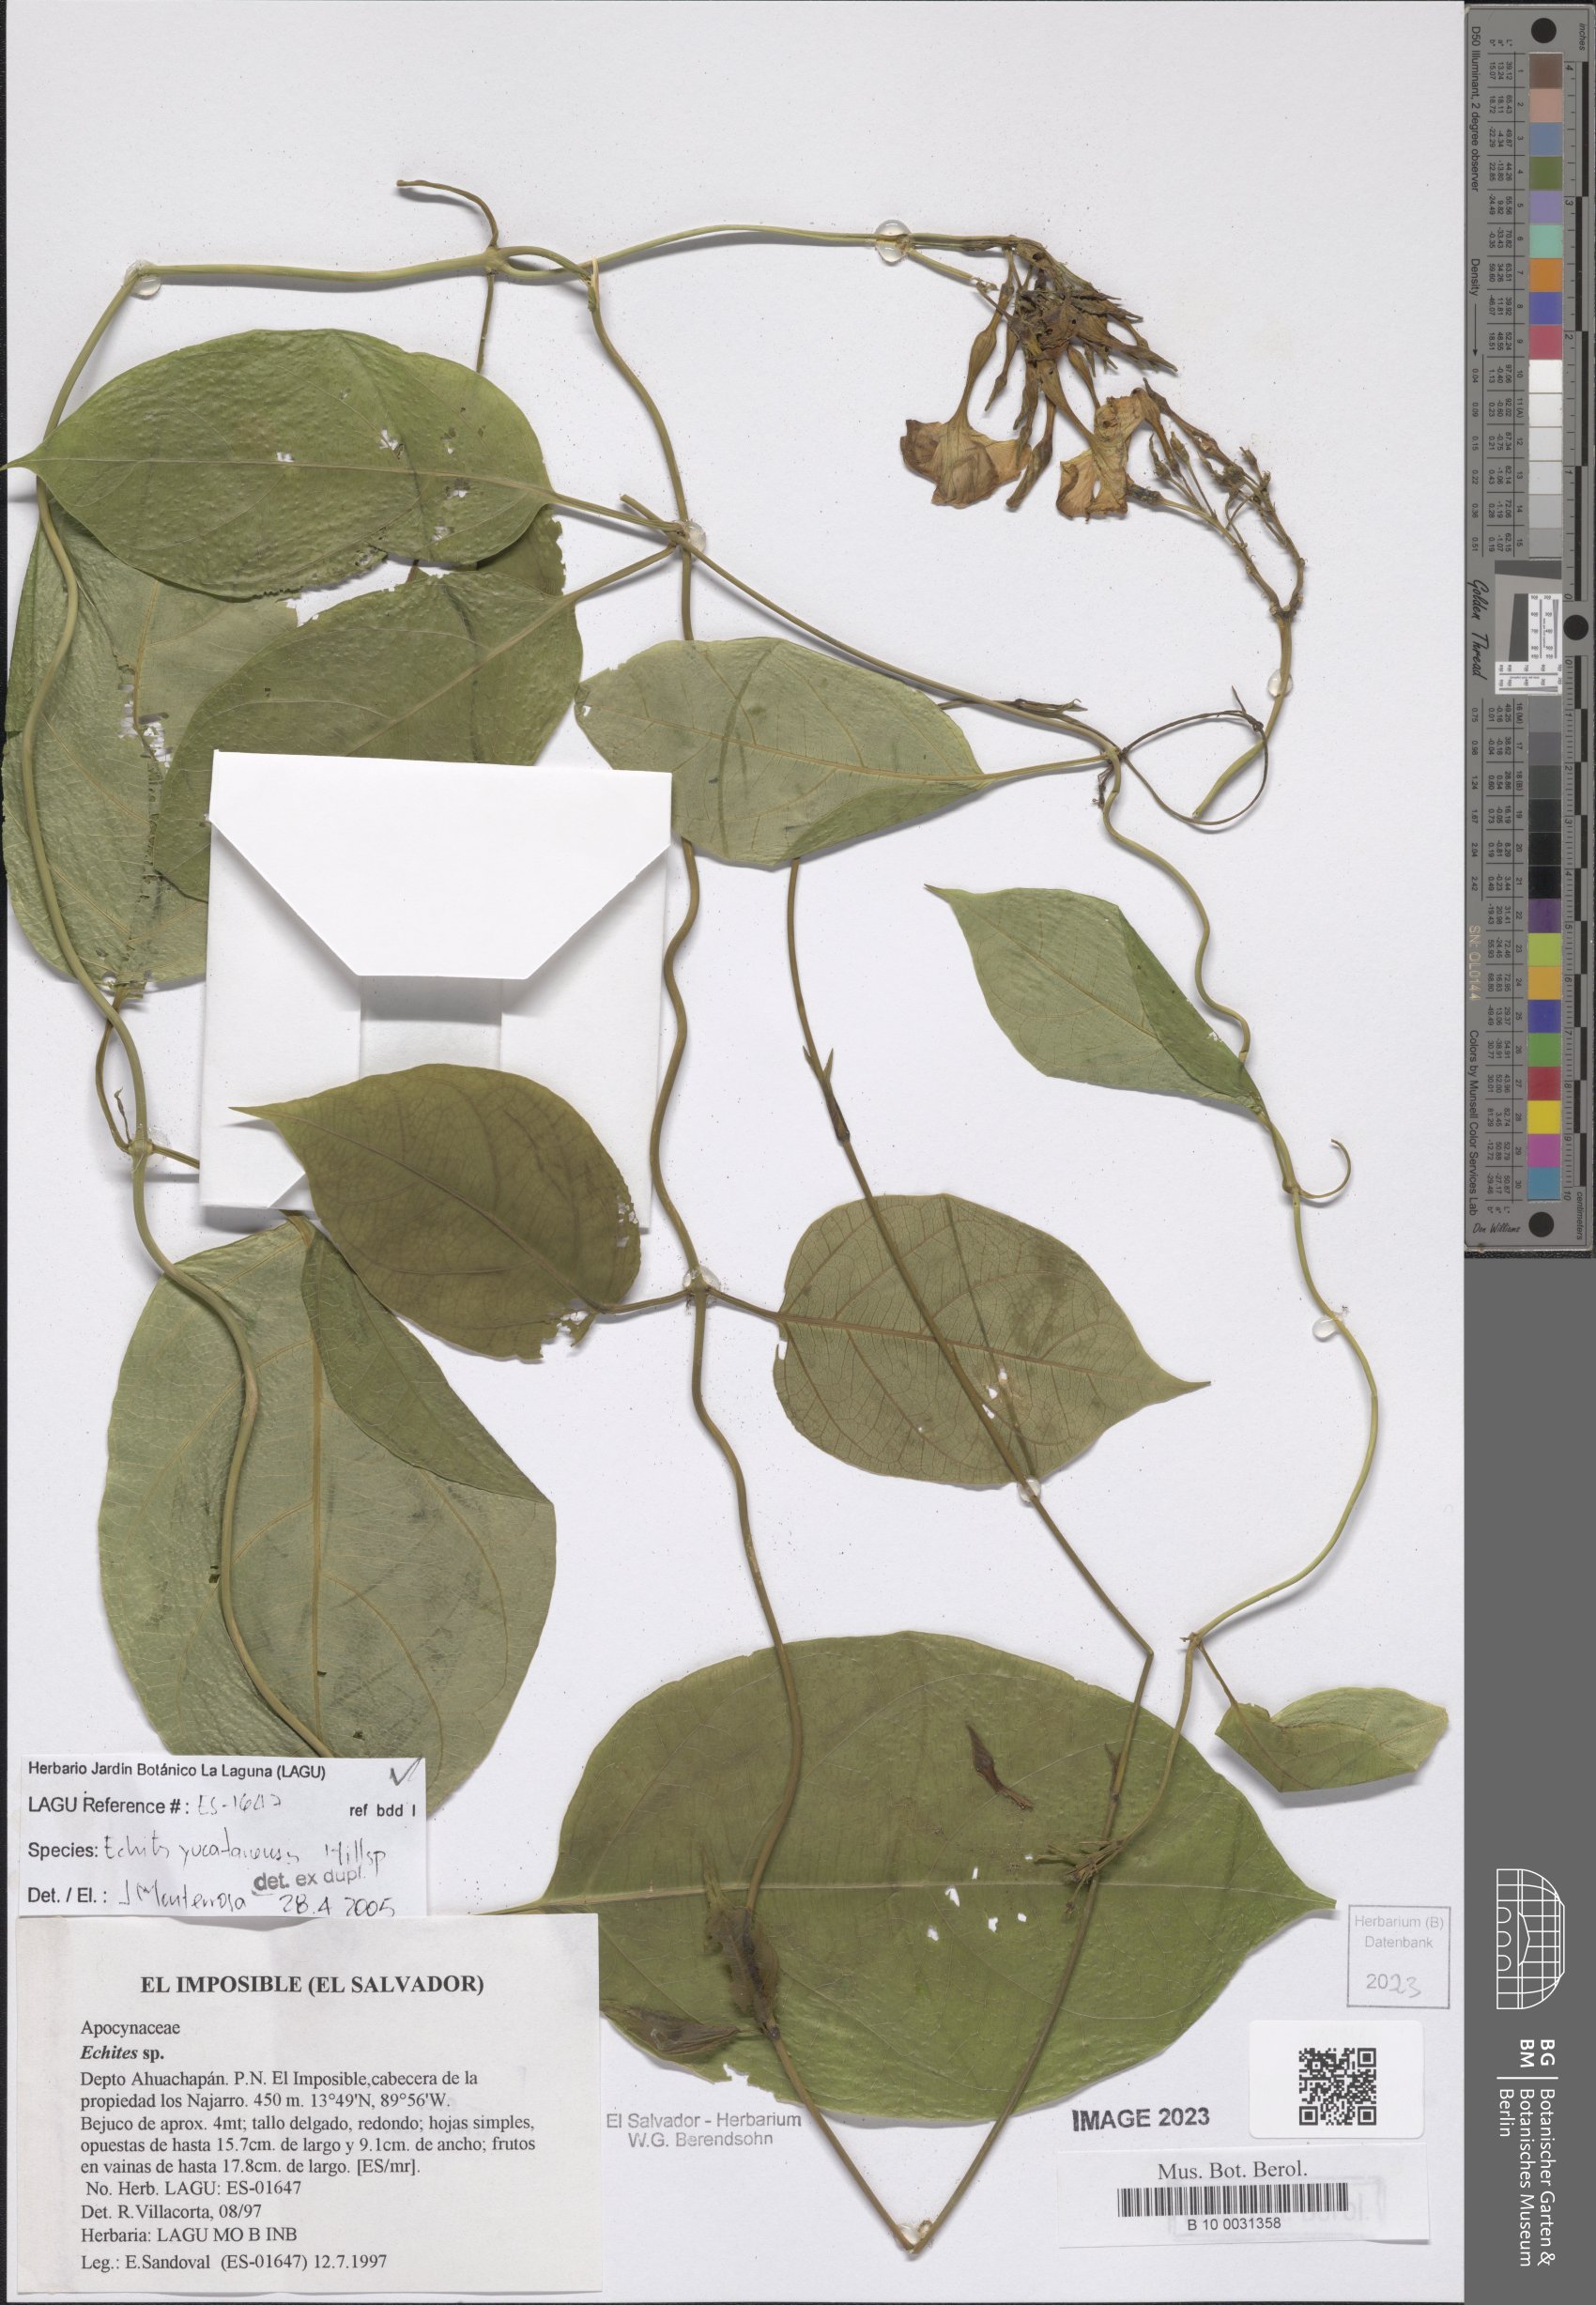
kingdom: Plantae
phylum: Tracheophyta
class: Magnoliopsida
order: Gentianales
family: Apocynaceae
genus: Echites
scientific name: Echites yucatanensis
